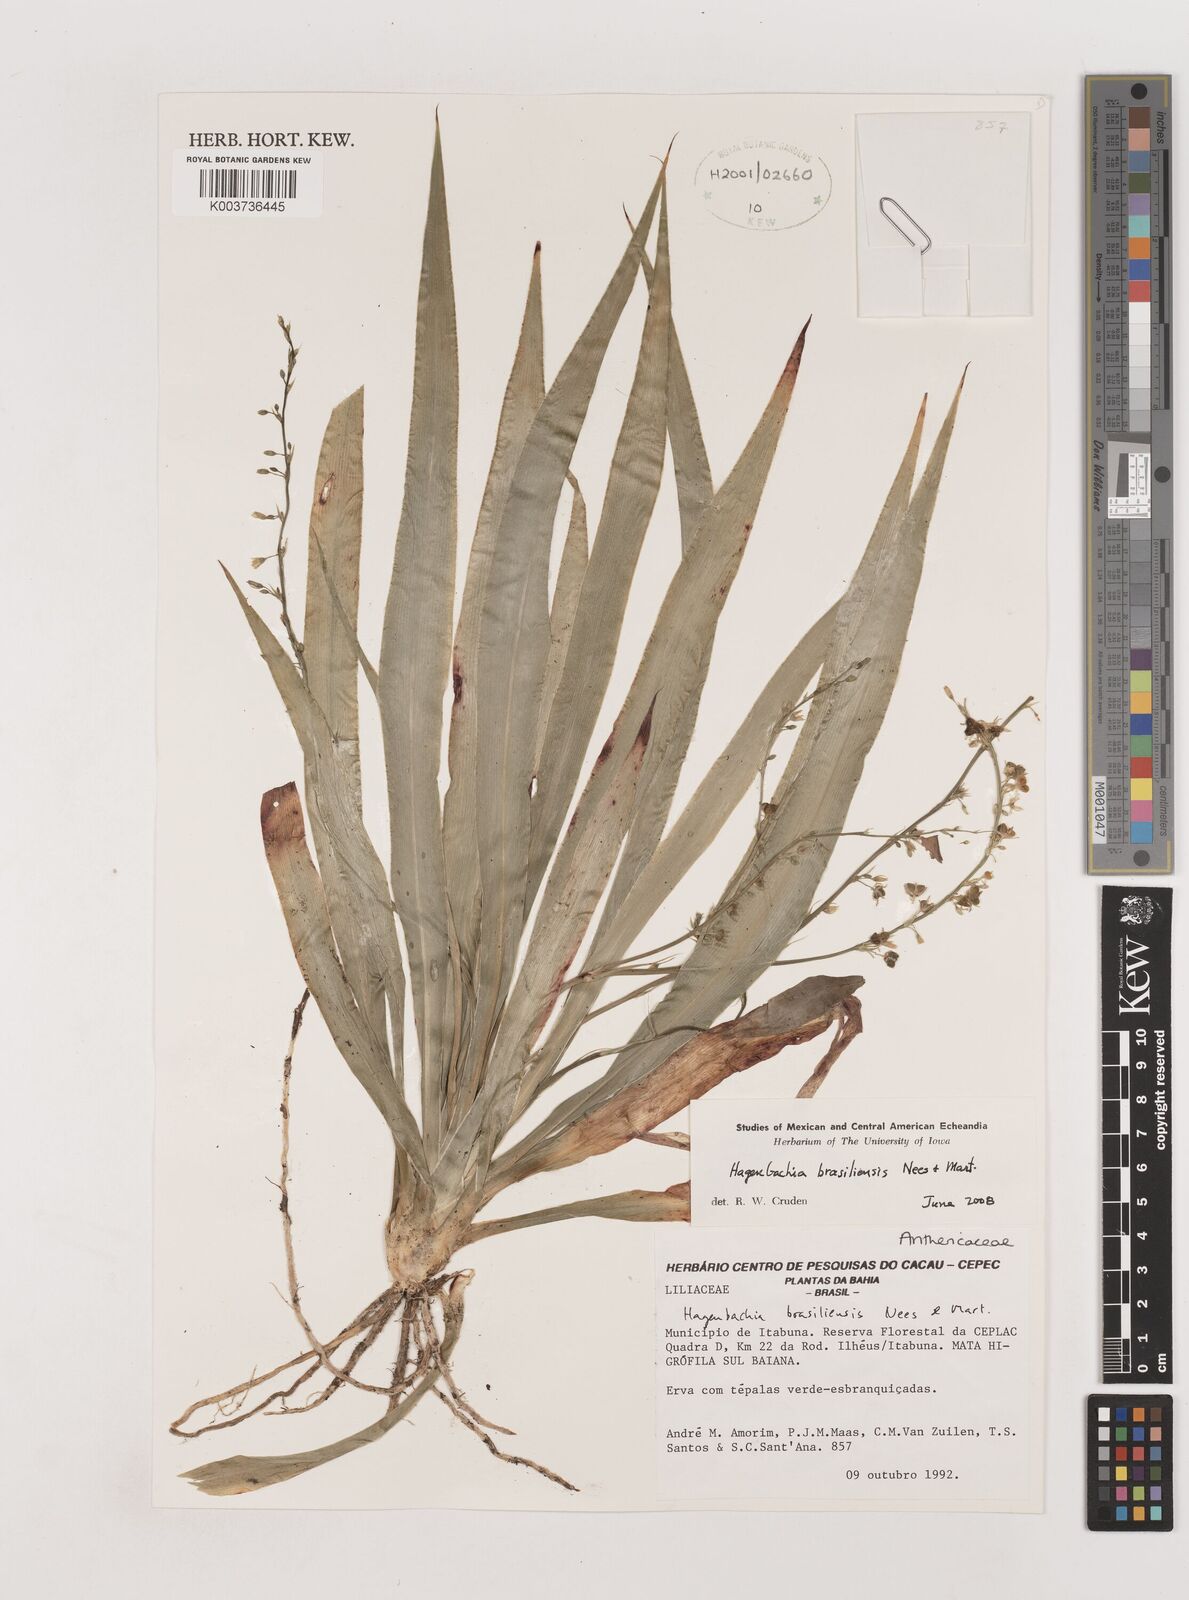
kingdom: Plantae
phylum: Tracheophyta
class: Liliopsida
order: Asparagales
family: Asparagaceae
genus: Hagenbachia
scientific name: Hagenbachia brasiliensis
